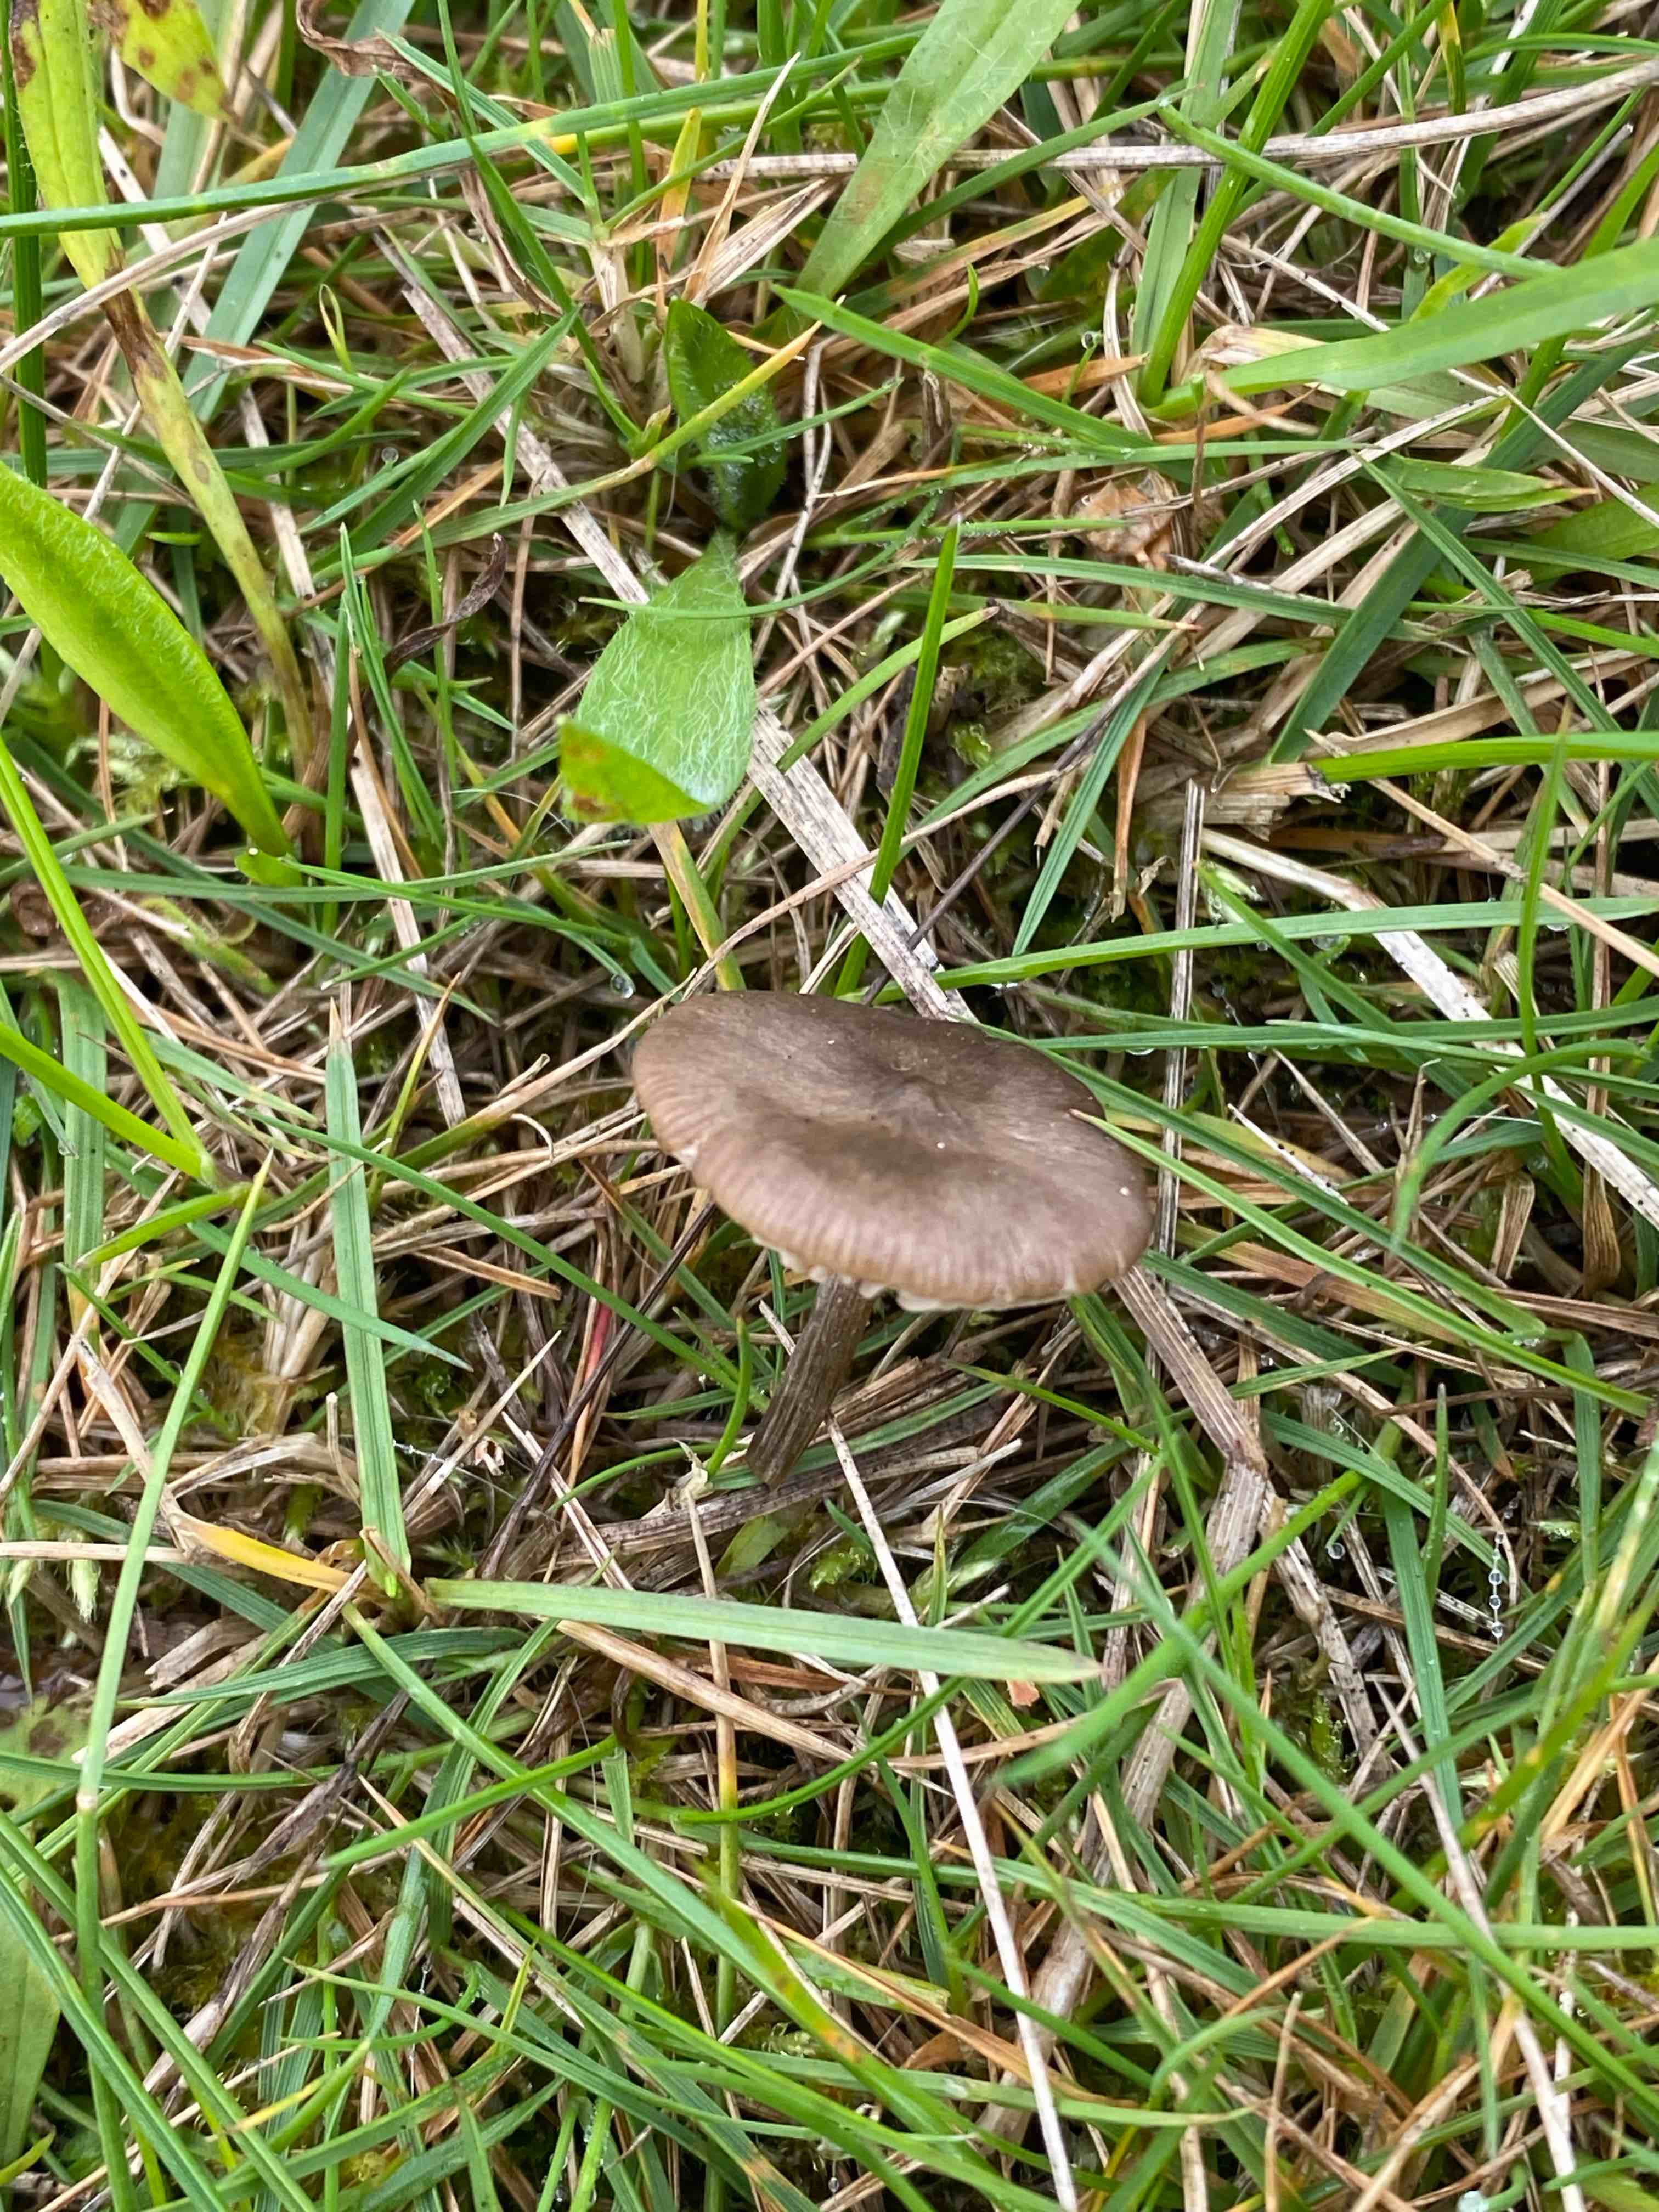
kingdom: Fungi
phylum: Basidiomycota
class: Agaricomycetes
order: Agaricales
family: Entolomataceae
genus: Entoloma
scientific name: Entoloma sericeum
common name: silkeglinsende rødblad
